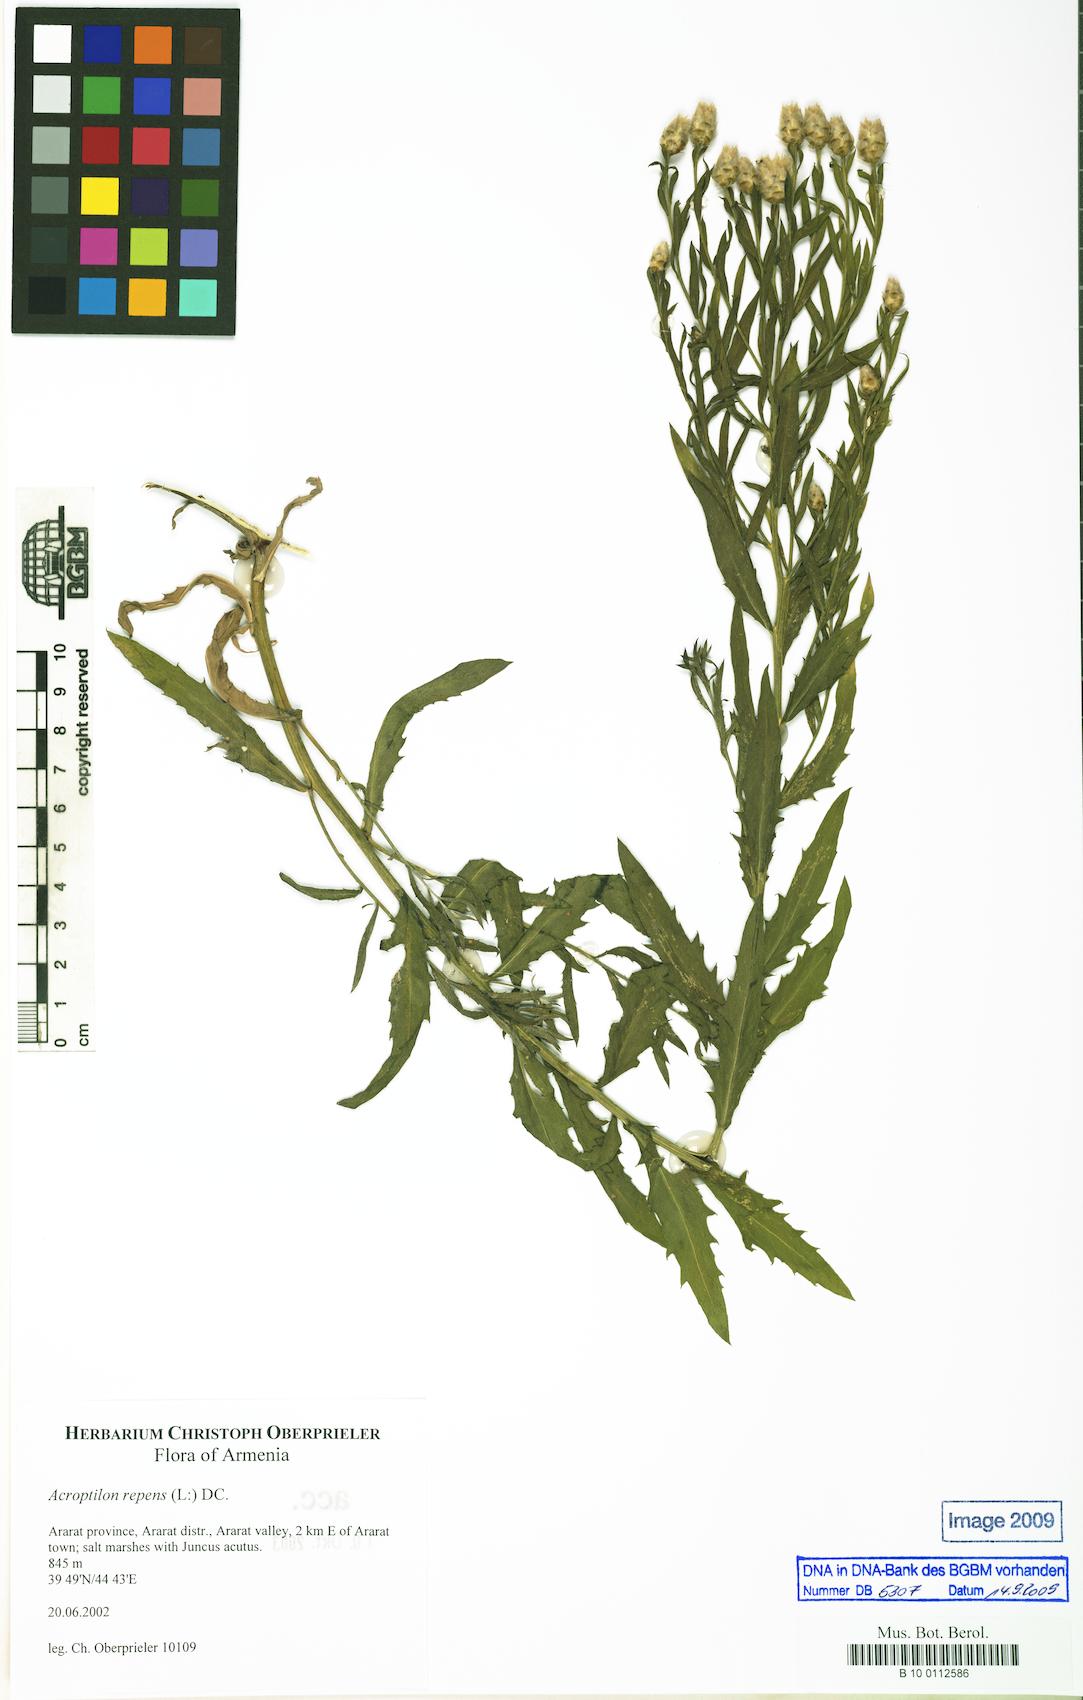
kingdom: Plantae
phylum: Tracheophyta
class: Magnoliopsida
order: Asterales
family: Asteraceae
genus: Leuzea
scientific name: Leuzea repens
